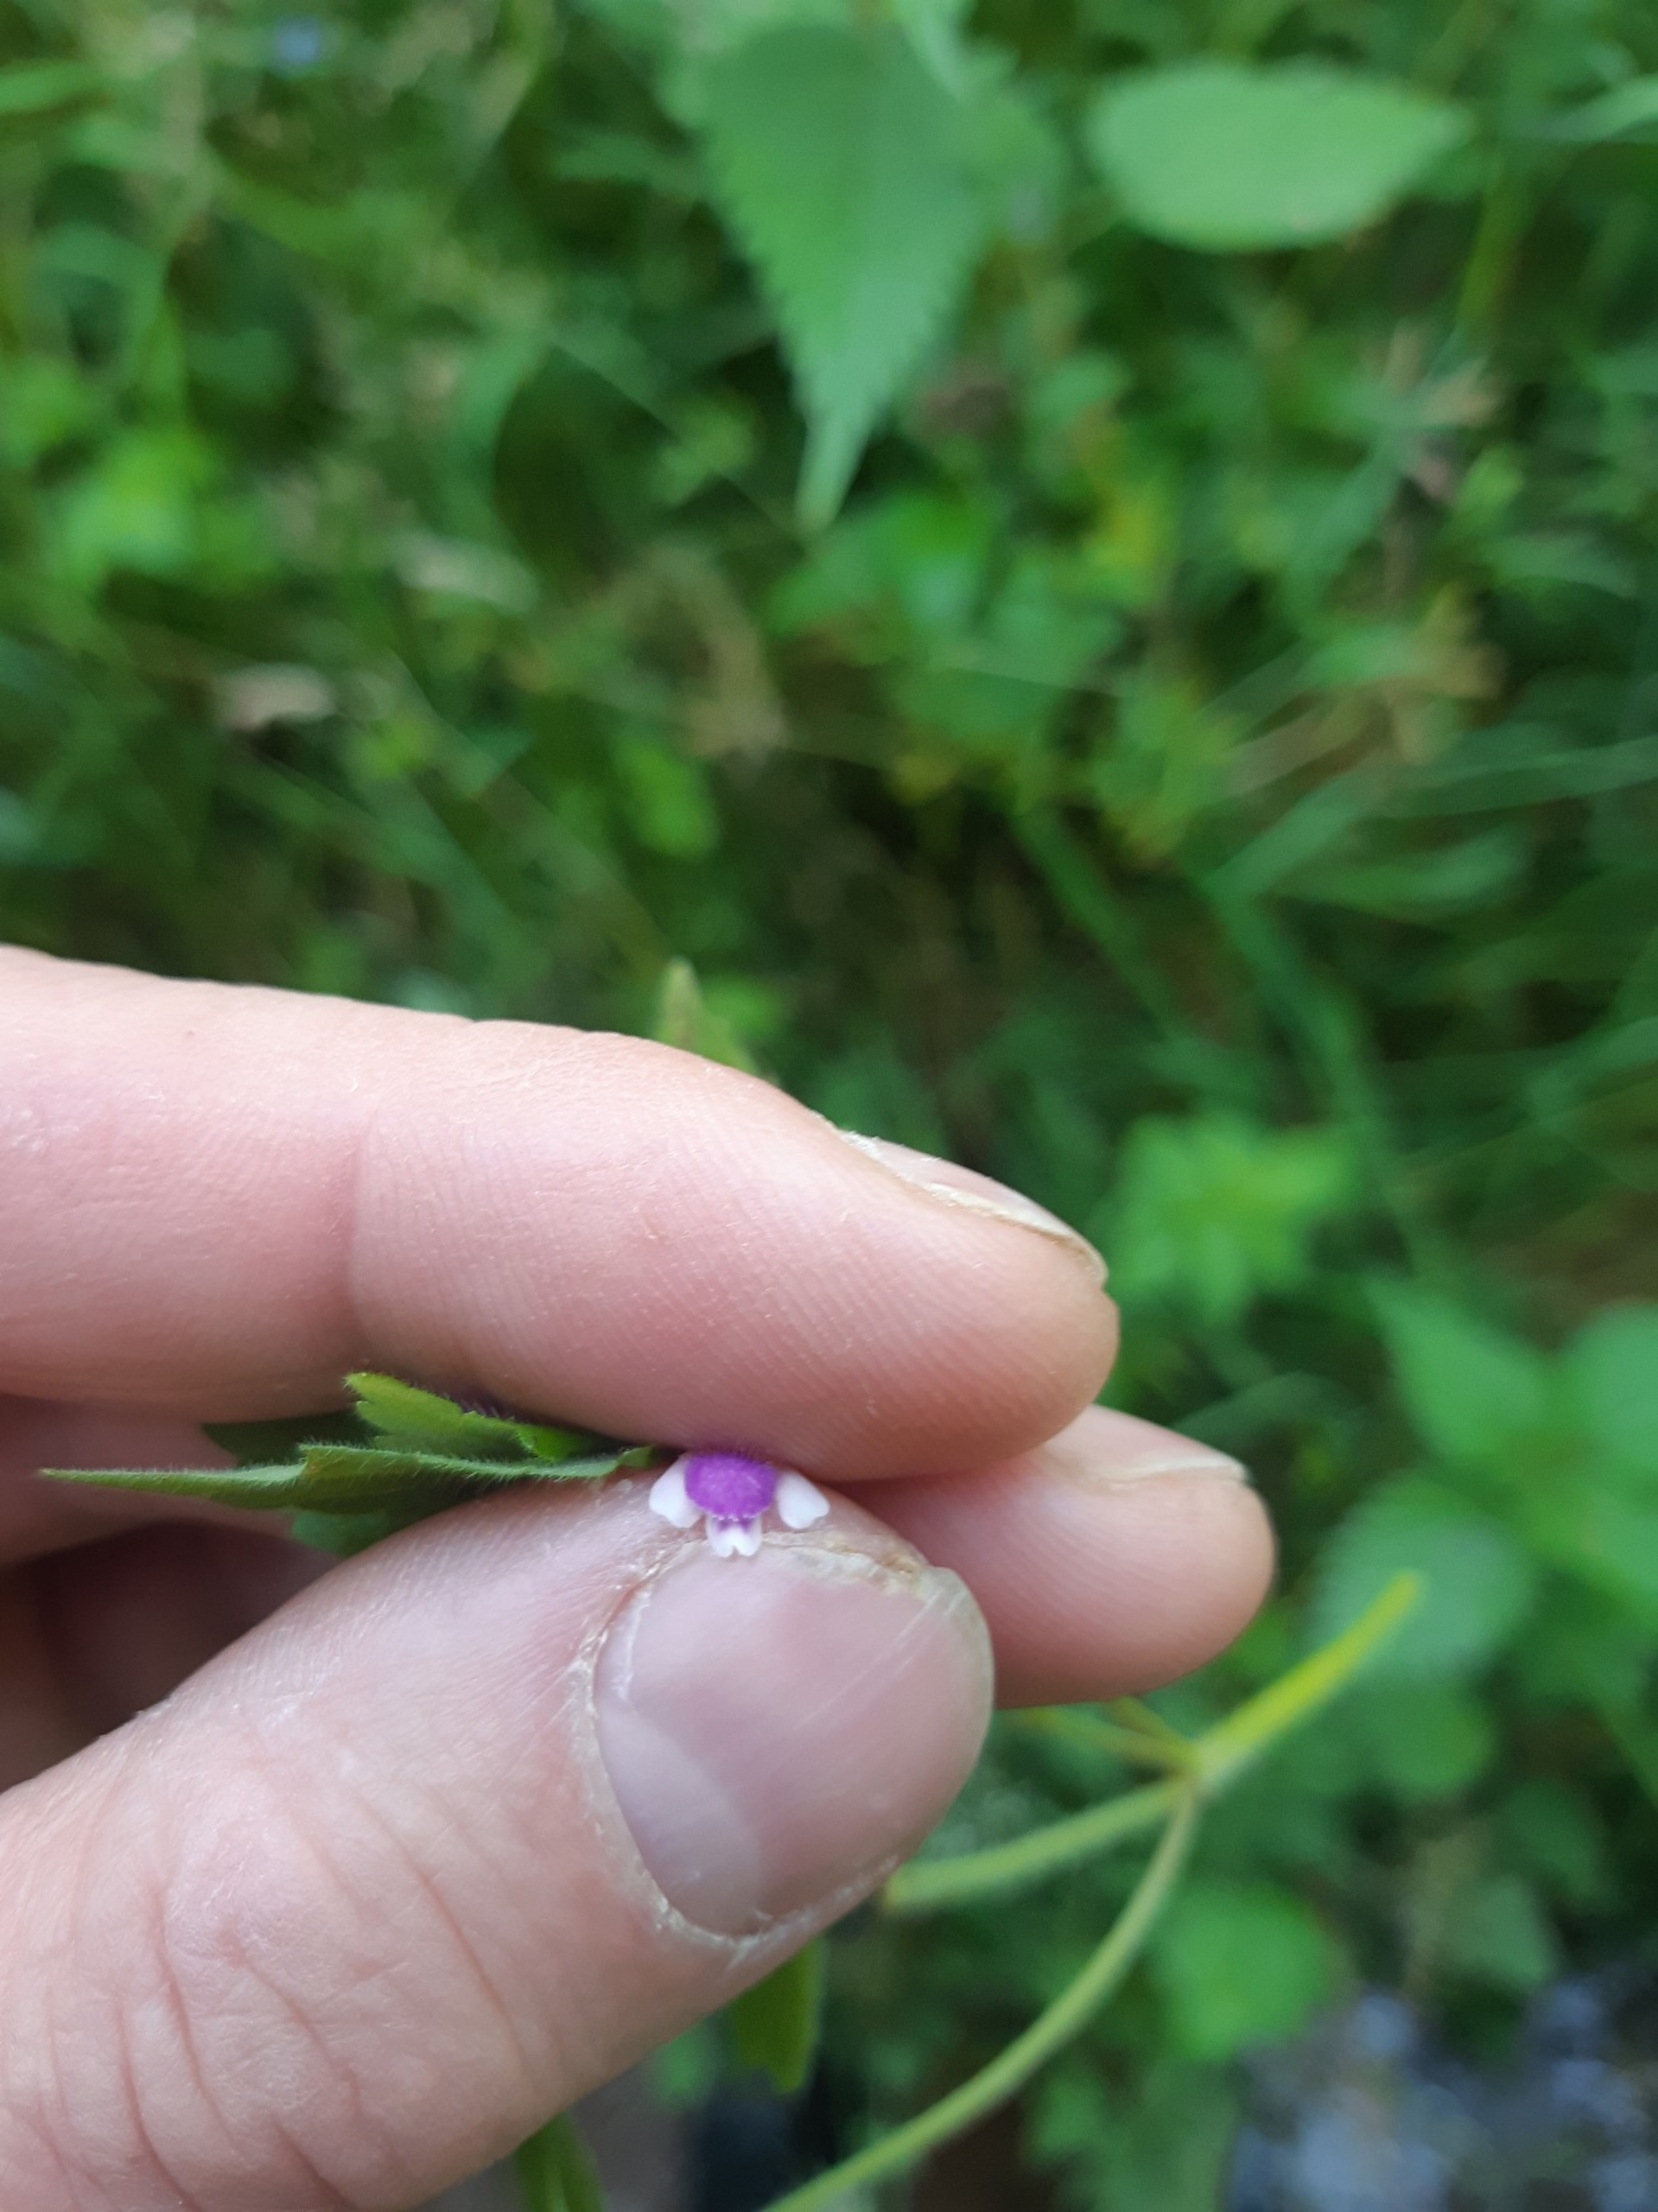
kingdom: Plantae
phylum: Tracheophyta
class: Magnoliopsida
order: Lamiales
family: Lamiaceae
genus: Galeopsis
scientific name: Galeopsis bifida
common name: Skov-hanekro
